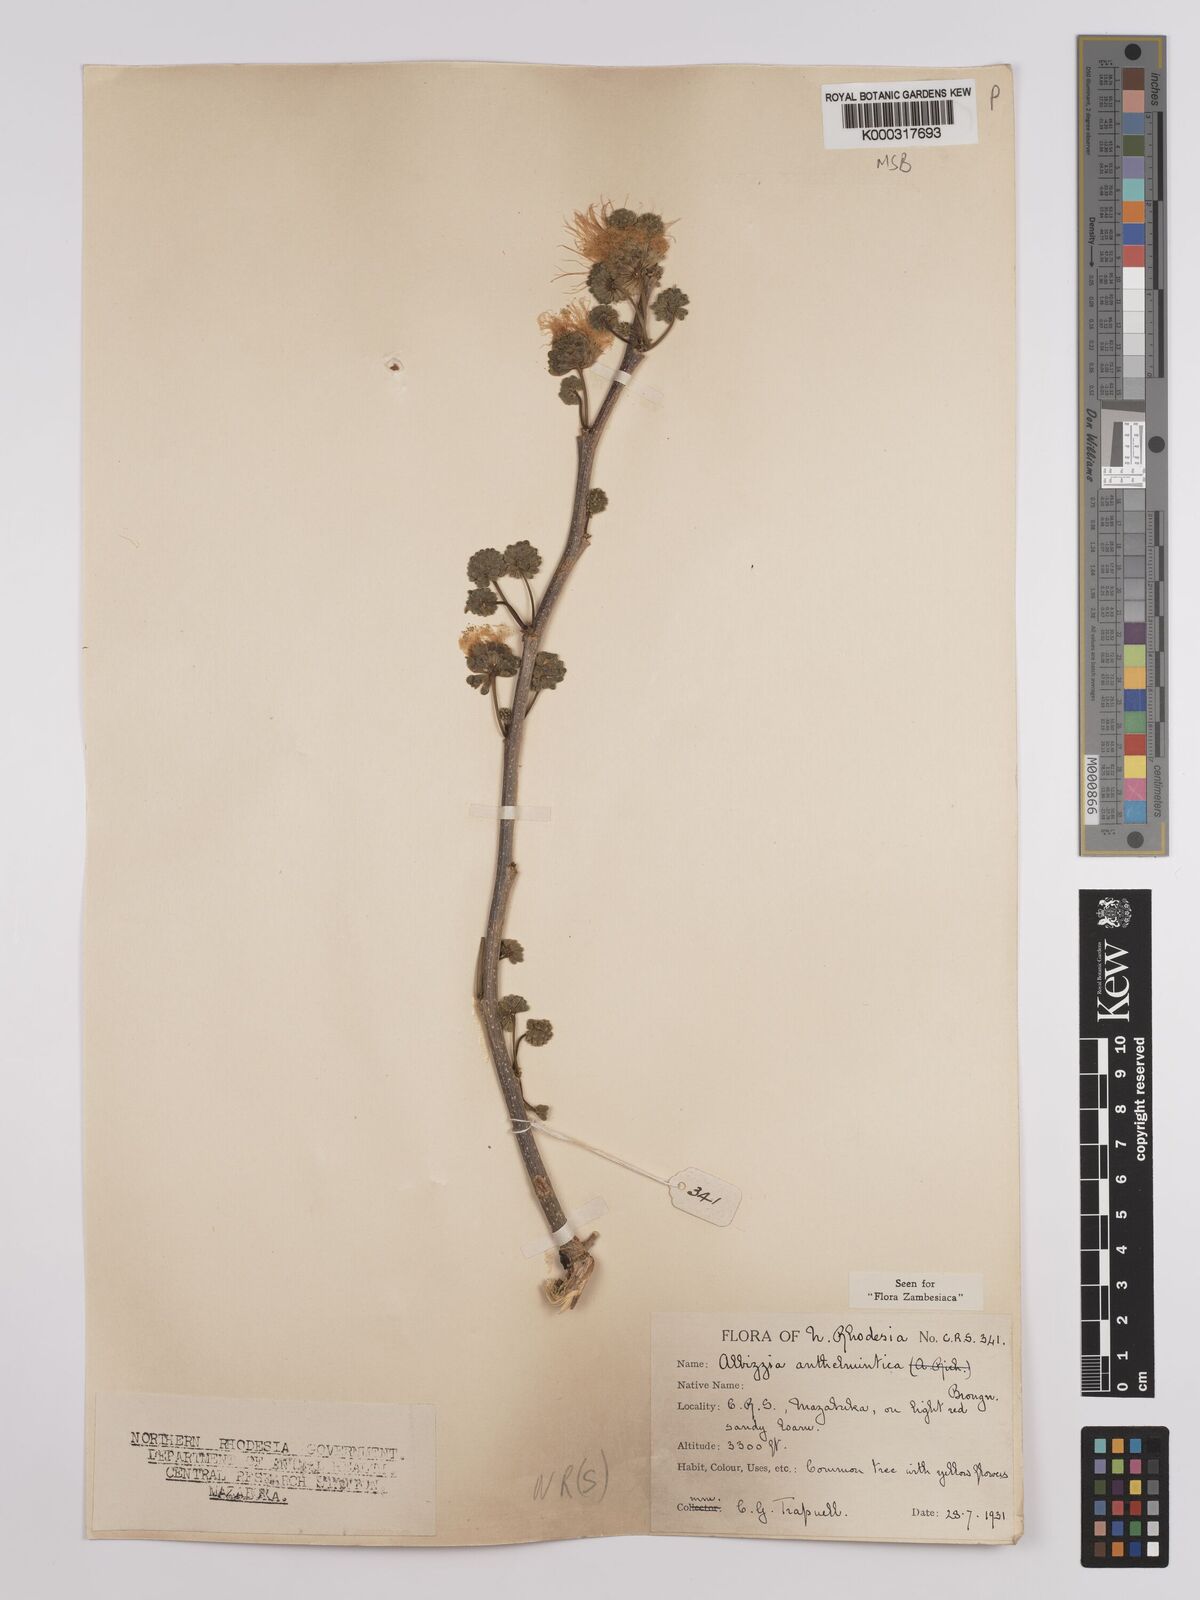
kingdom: Plantae
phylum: Tracheophyta
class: Magnoliopsida
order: Fabales
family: Fabaceae
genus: Albizia
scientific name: Albizia anthelmintica
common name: Worm-bark false-thorn
